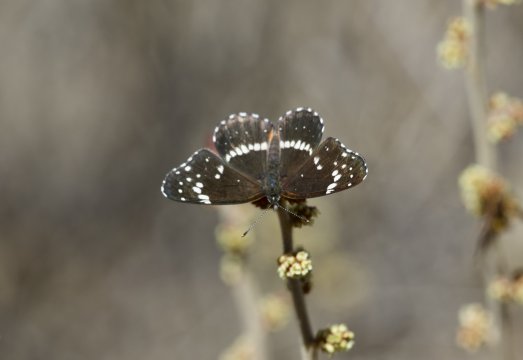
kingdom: Animalia
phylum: Arthropoda
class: Insecta
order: Lepidoptera
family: Nymphalidae
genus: Chlosyne
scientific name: Chlosyne lacinia
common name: Bordered Patch
